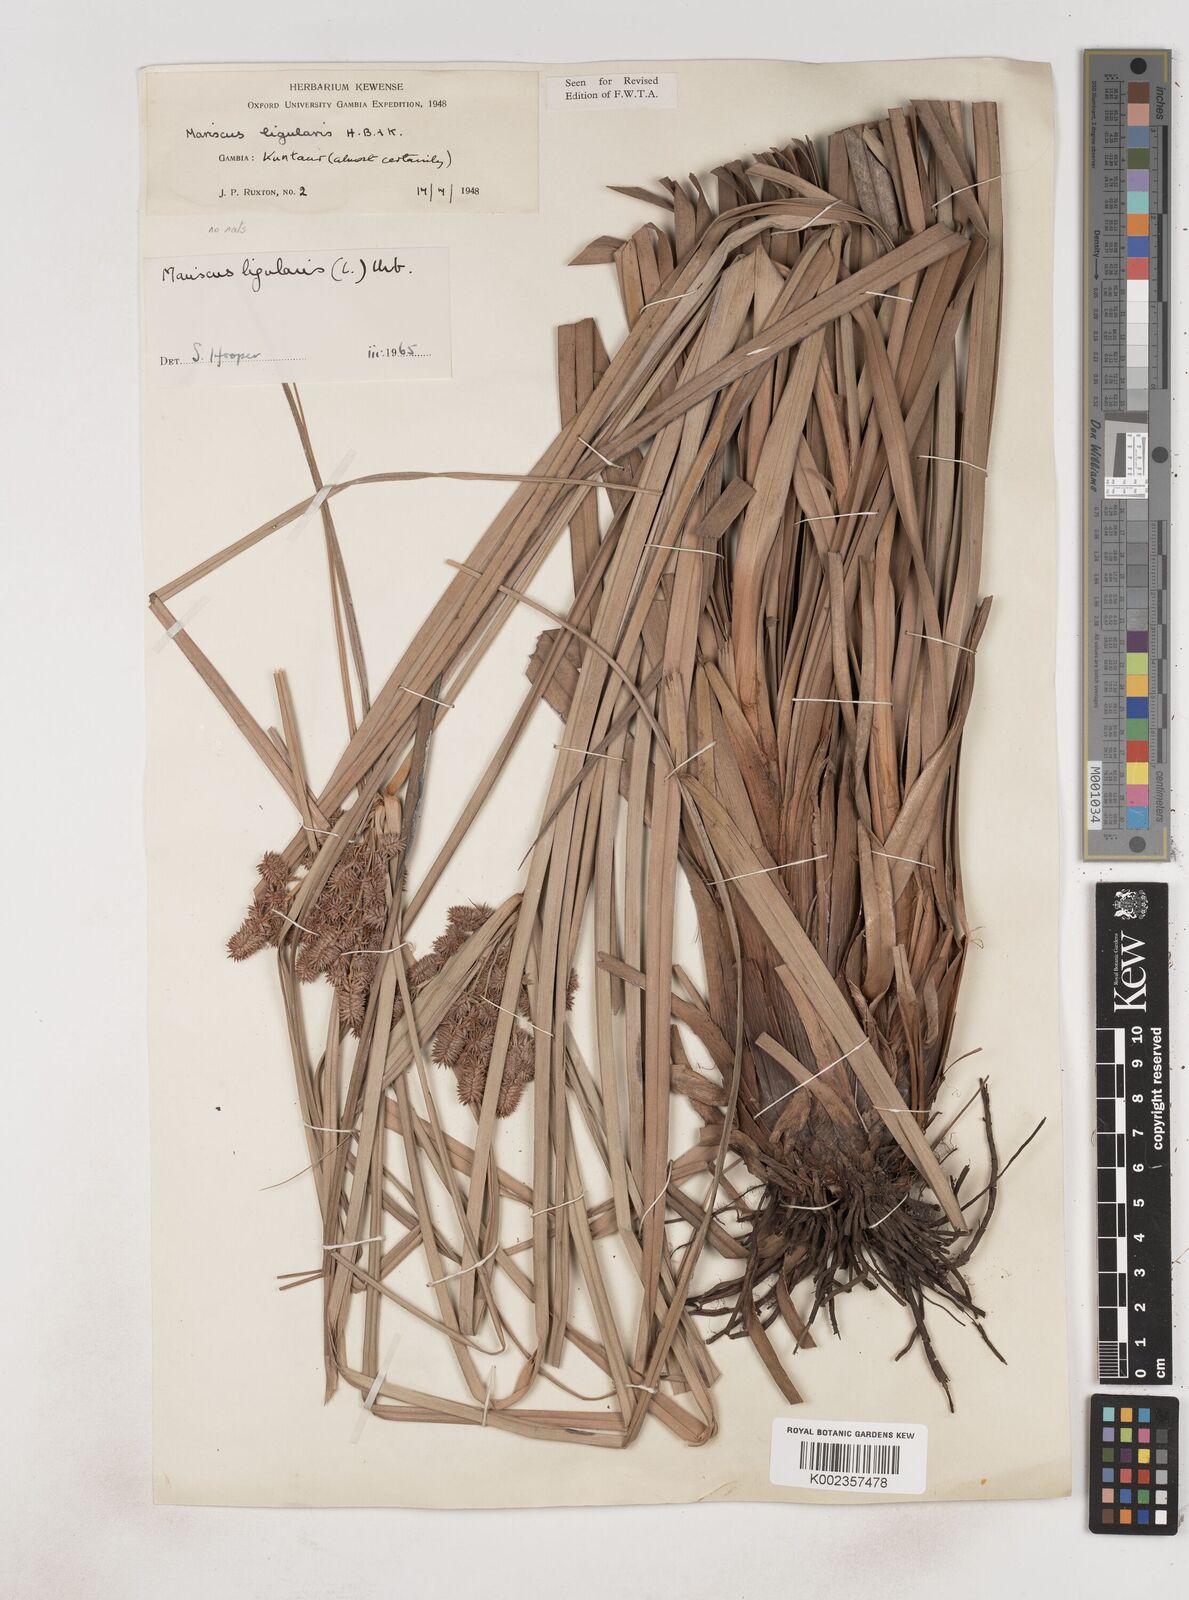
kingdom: Plantae
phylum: Tracheophyta
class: Liliopsida
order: Poales
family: Cyperaceae
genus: Cyperus
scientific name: Cyperus ligularis
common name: Swamp flat sedge
